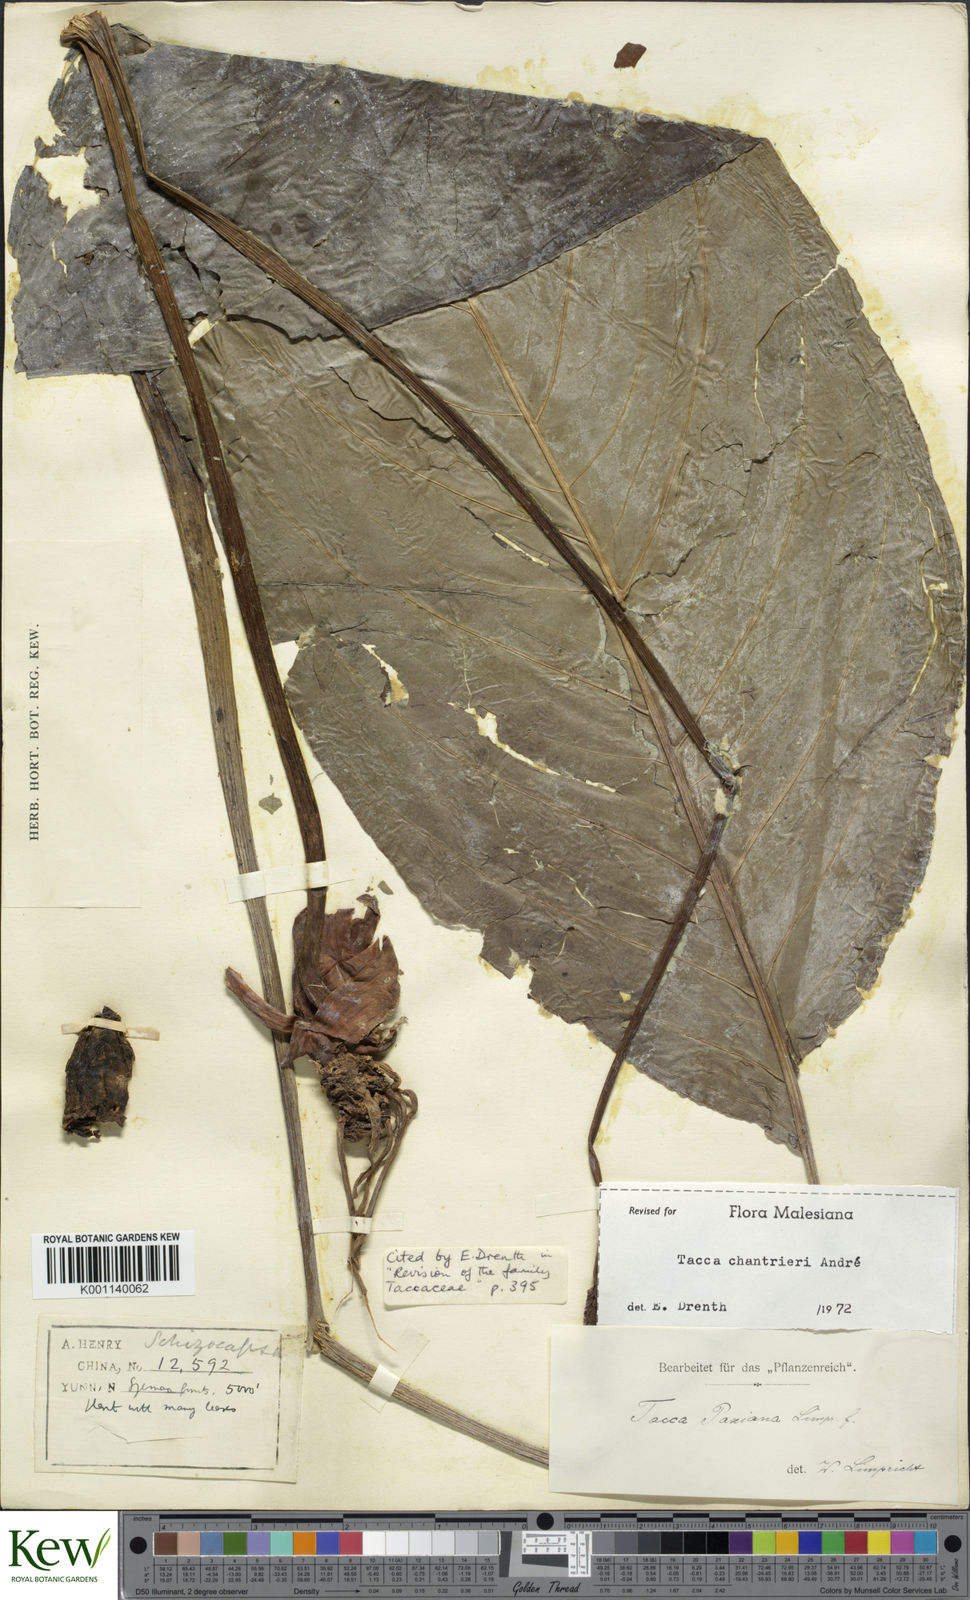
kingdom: Plantae
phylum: Tracheophyta
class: Liliopsida
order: Dioscoreales
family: Dioscoreaceae
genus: Tacca
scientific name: Tacca
